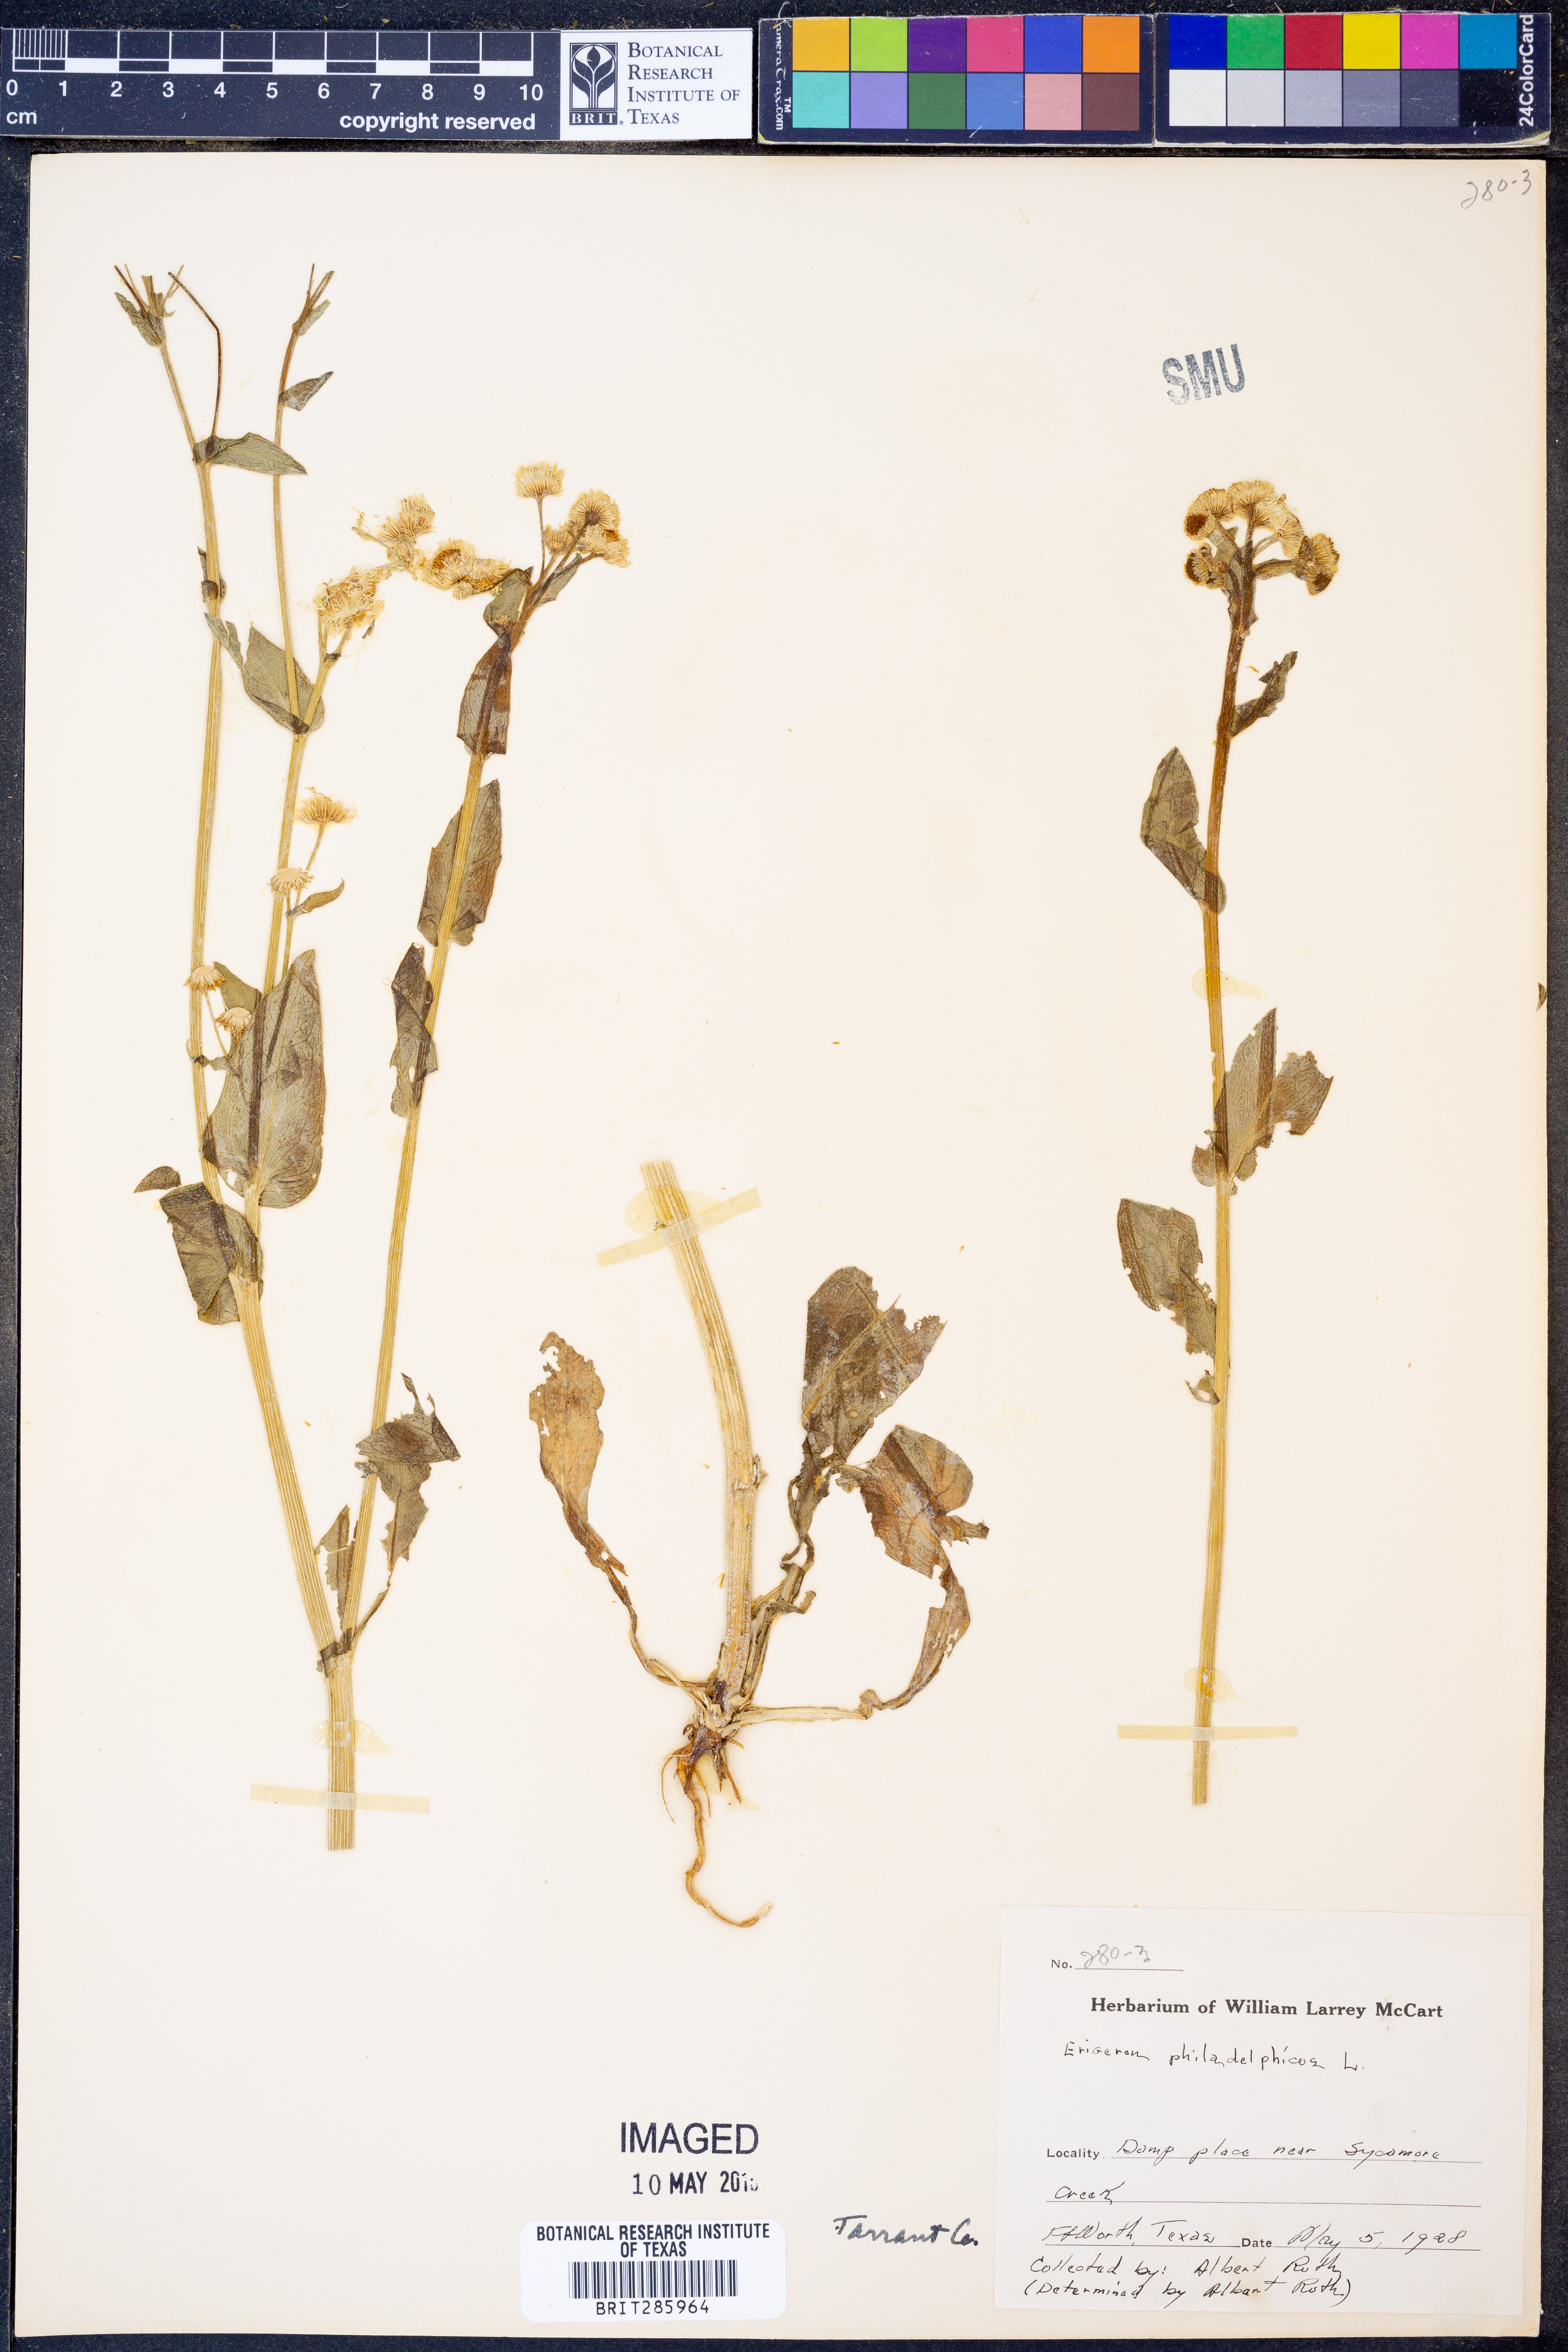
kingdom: Plantae
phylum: Tracheophyta
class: Magnoliopsida
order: Asterales
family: Asteraceae
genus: Erigeron
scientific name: Erigeron philadelphicus
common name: Robin's-plantain
